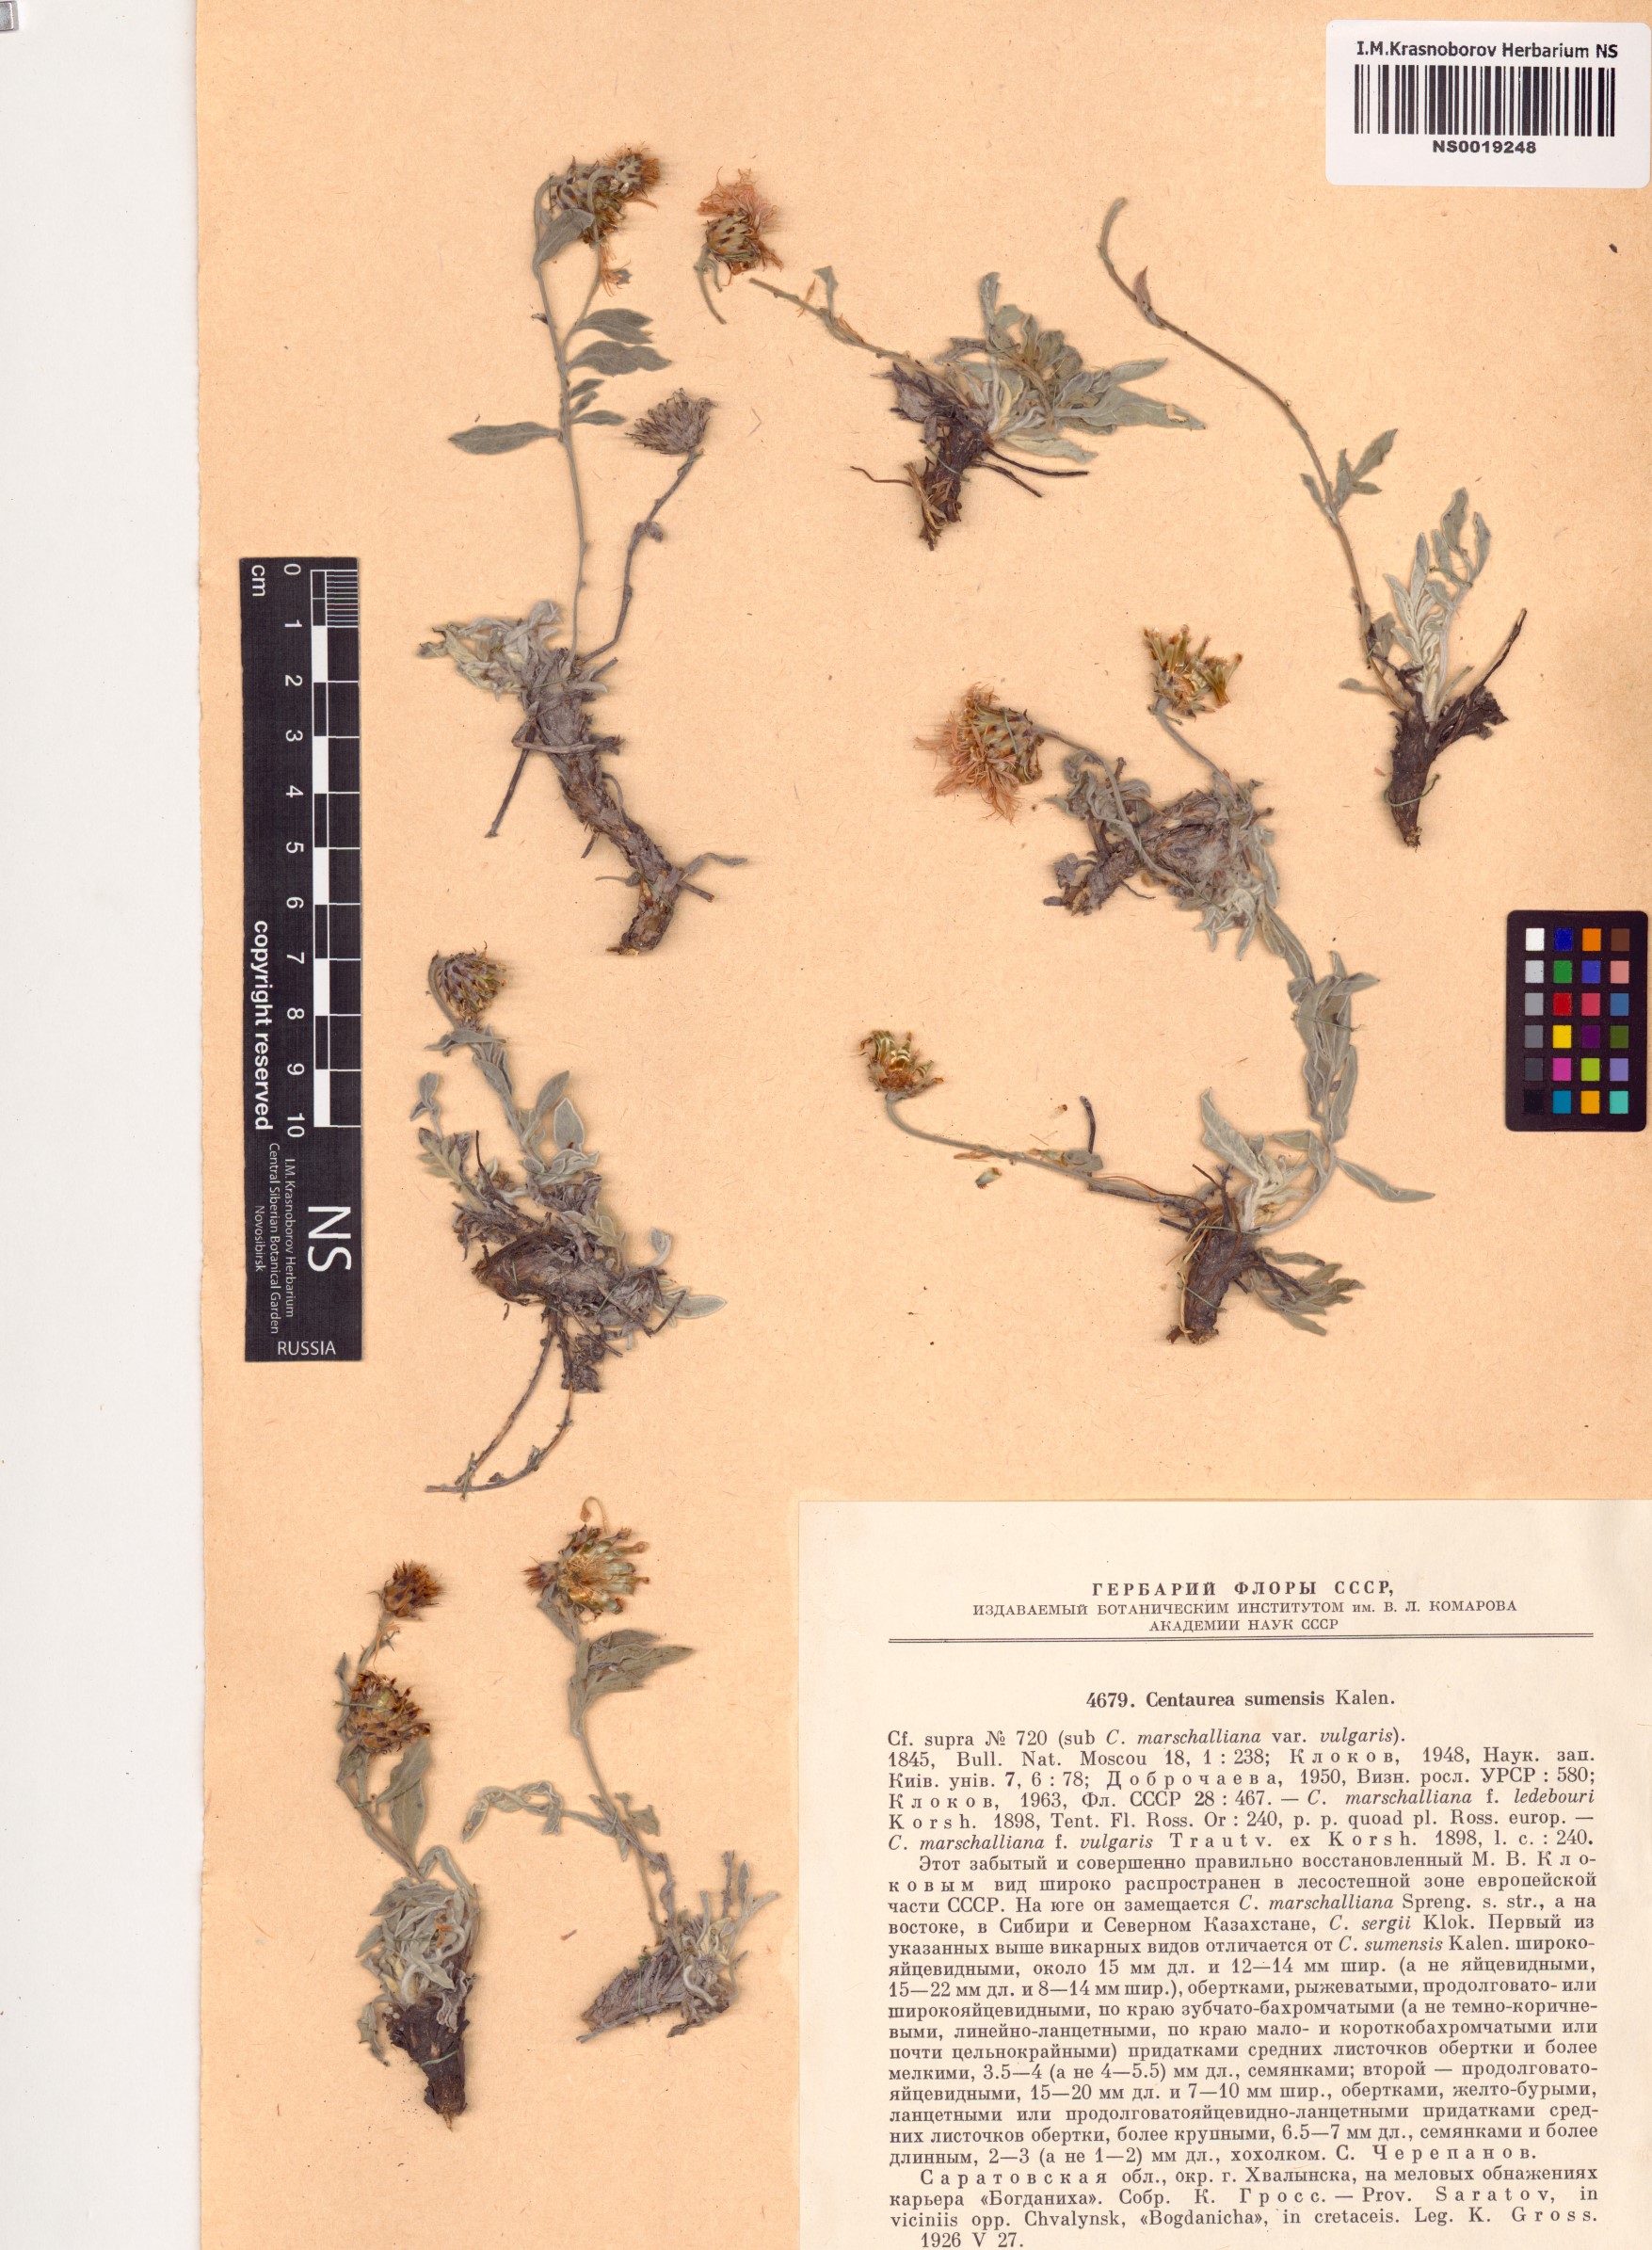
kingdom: Plantae
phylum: Tracheophyta
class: Magnoliopsida
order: Asterales
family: Asteraceae
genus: Psephellus
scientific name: Psephellus sumensis
